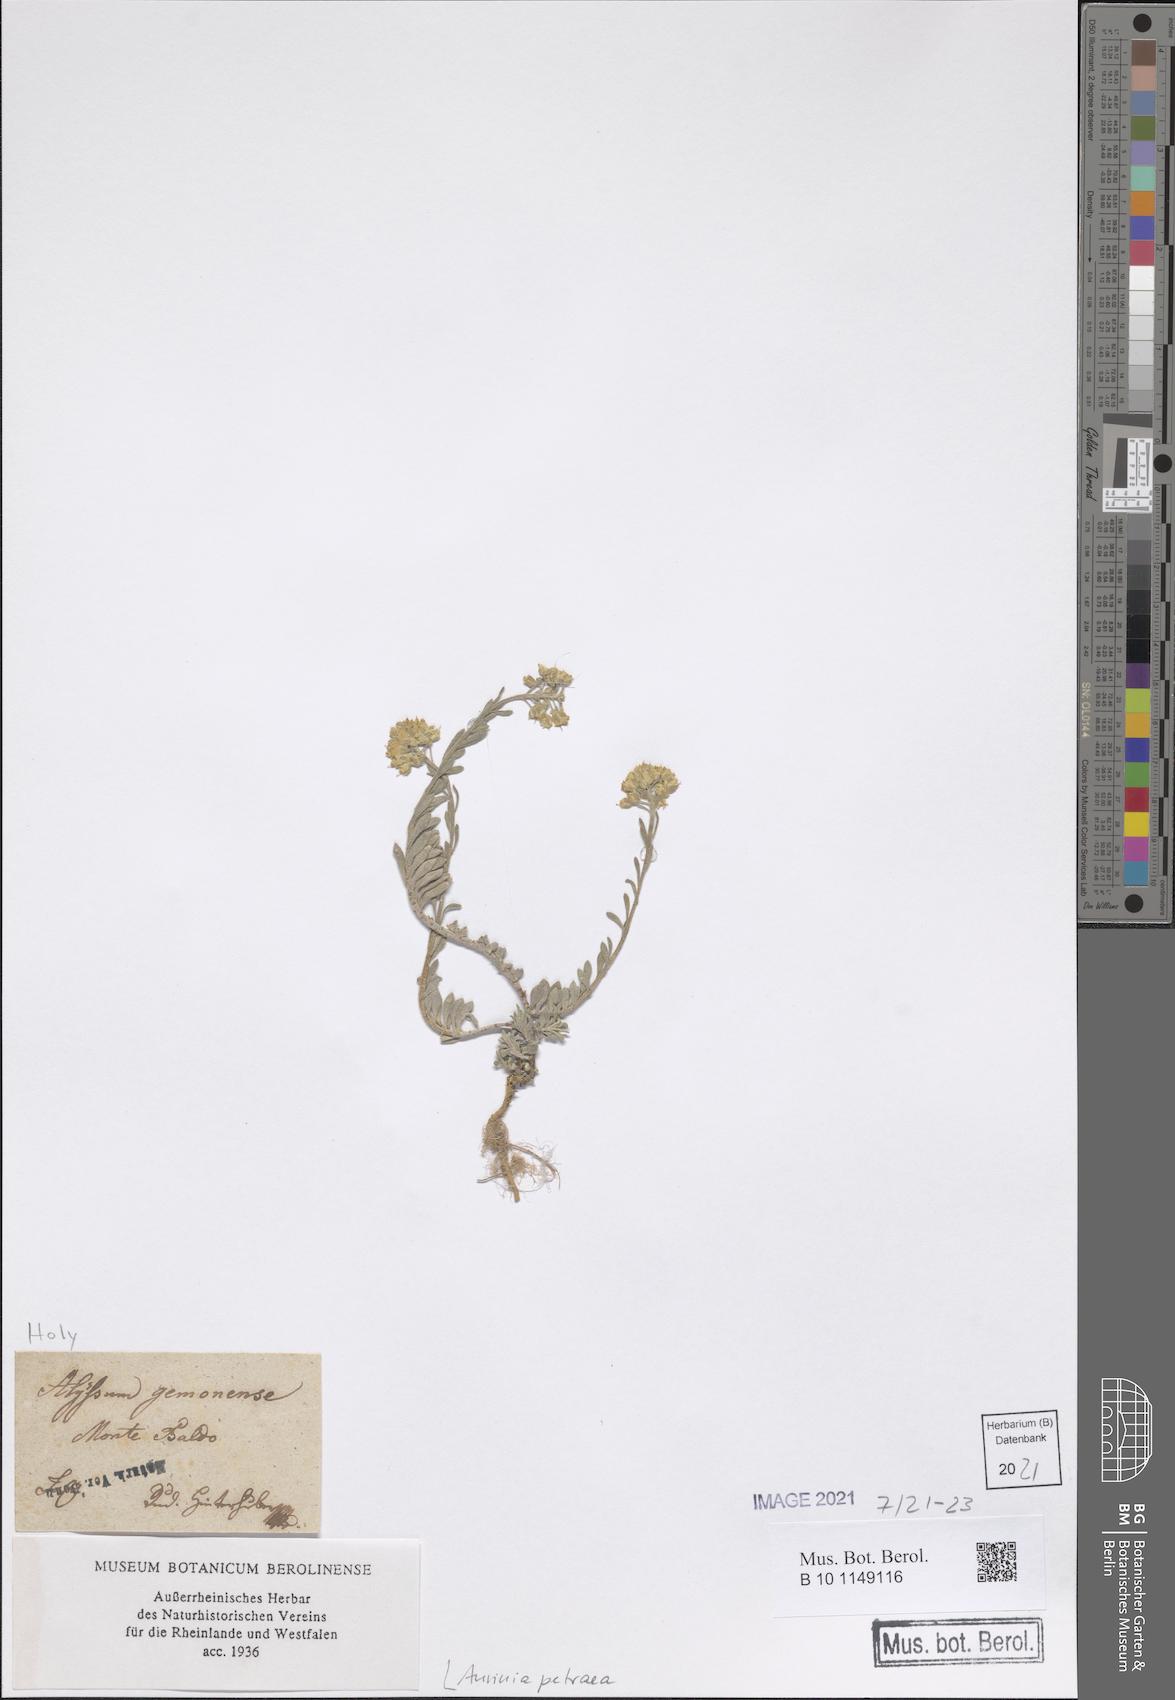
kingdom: Plantae
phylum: Tracheophyta
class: Magnoliopsida
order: Brassicales
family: Brassicaceae
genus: Aurinia
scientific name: Aurinia petraea
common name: Goldentuft
